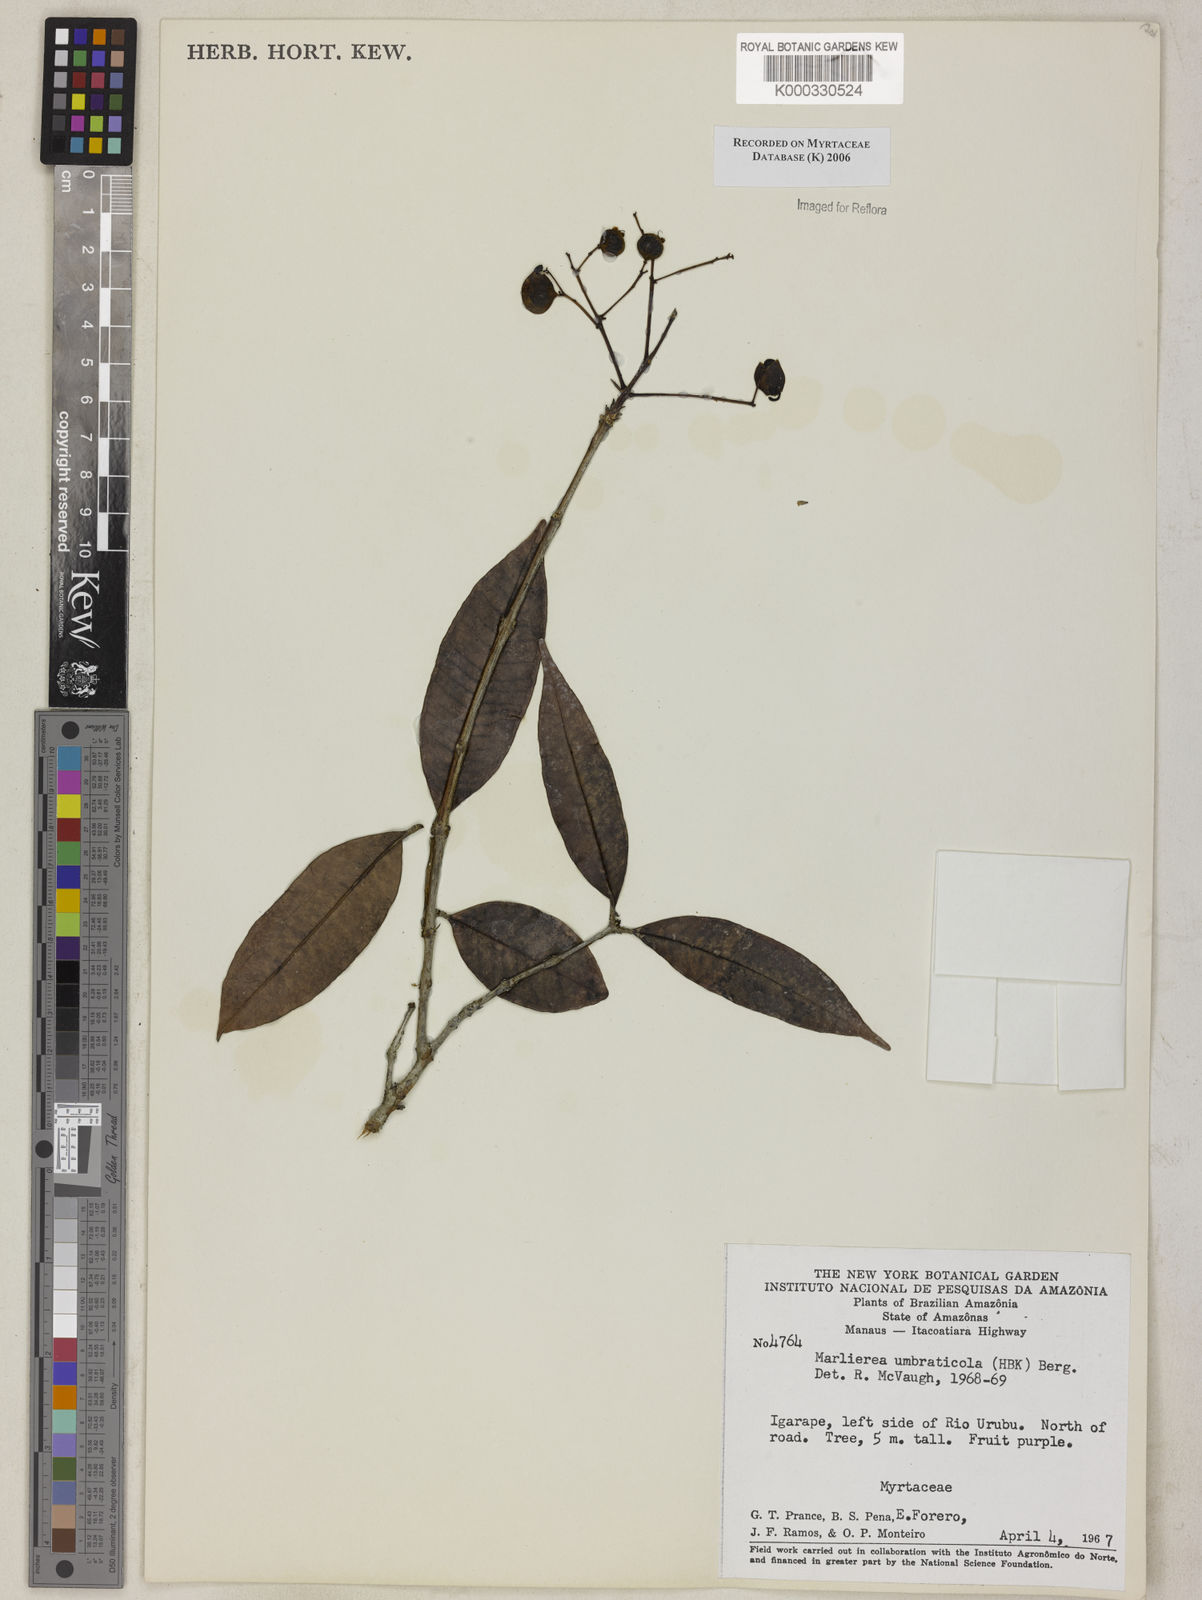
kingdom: Plantae
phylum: Tracheophyta
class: Magnoliopsida
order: Myrtales
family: Myrtaceae
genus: Myrcia
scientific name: Myrcia umbraticola
